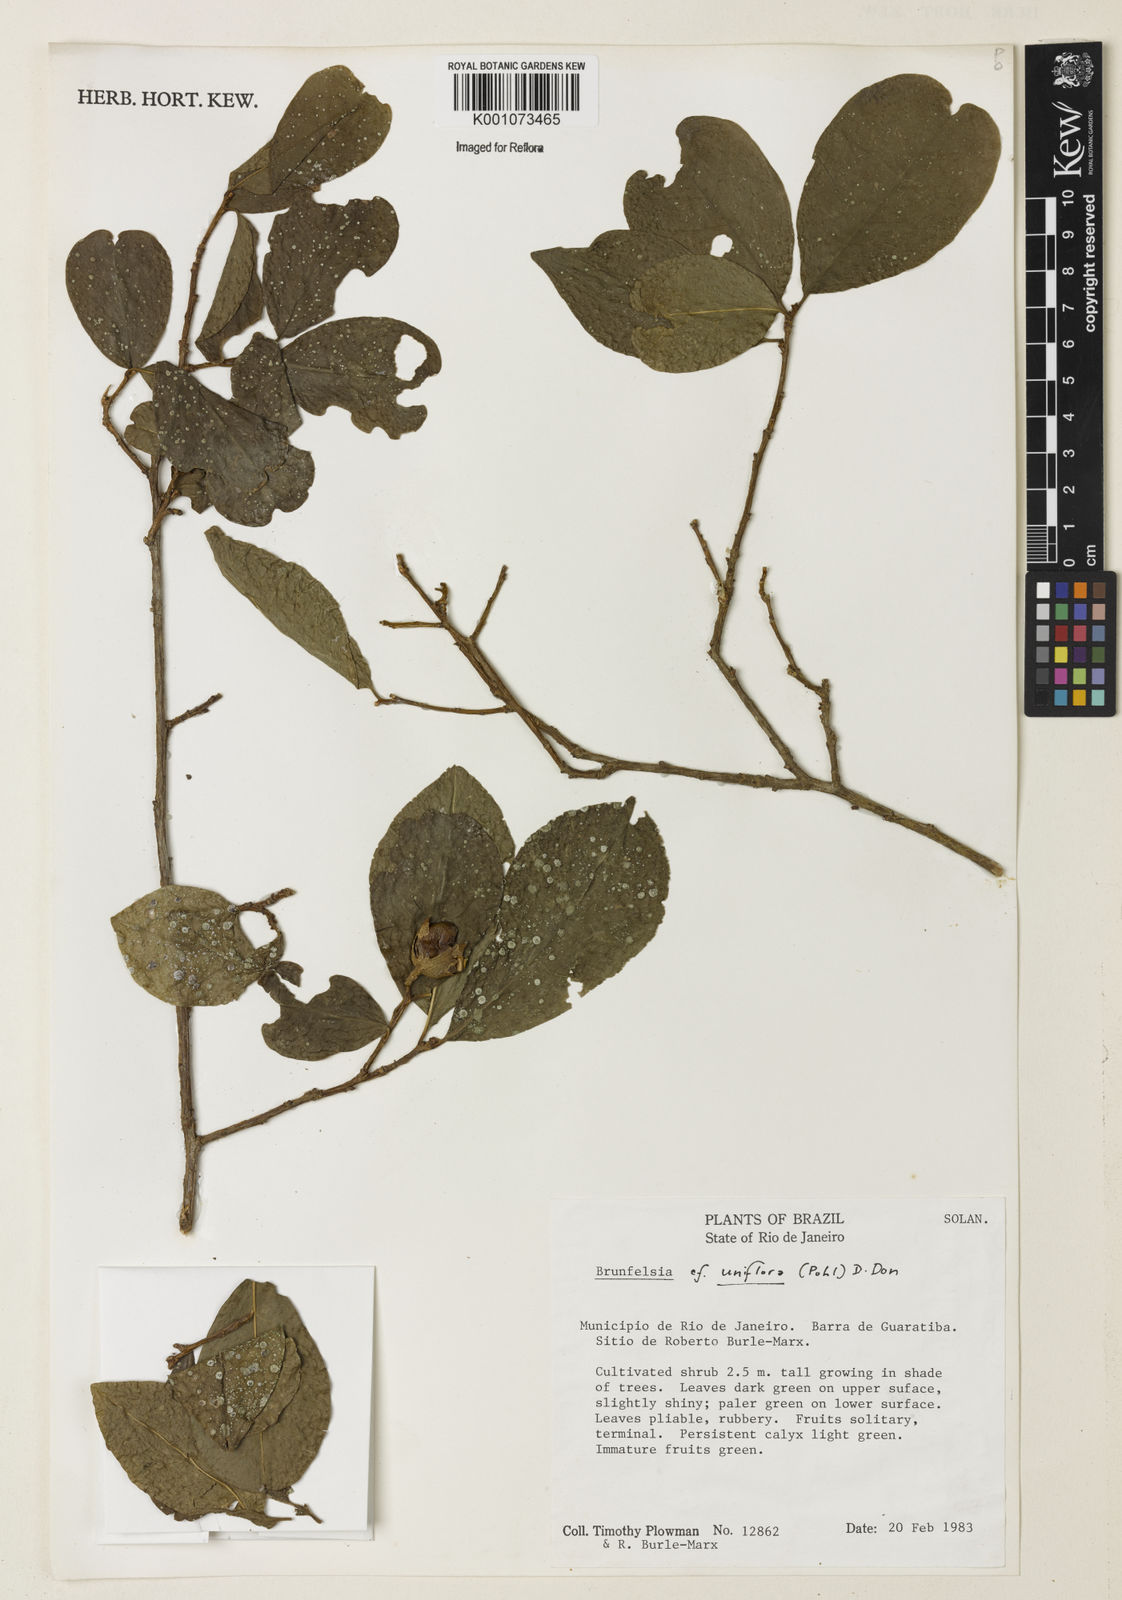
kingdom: Plantae
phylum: Tracheophyta
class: Magnoliopsida
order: Solanales
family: Solanaceae
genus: Brunfelsia
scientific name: Brunfelsia uniflora
